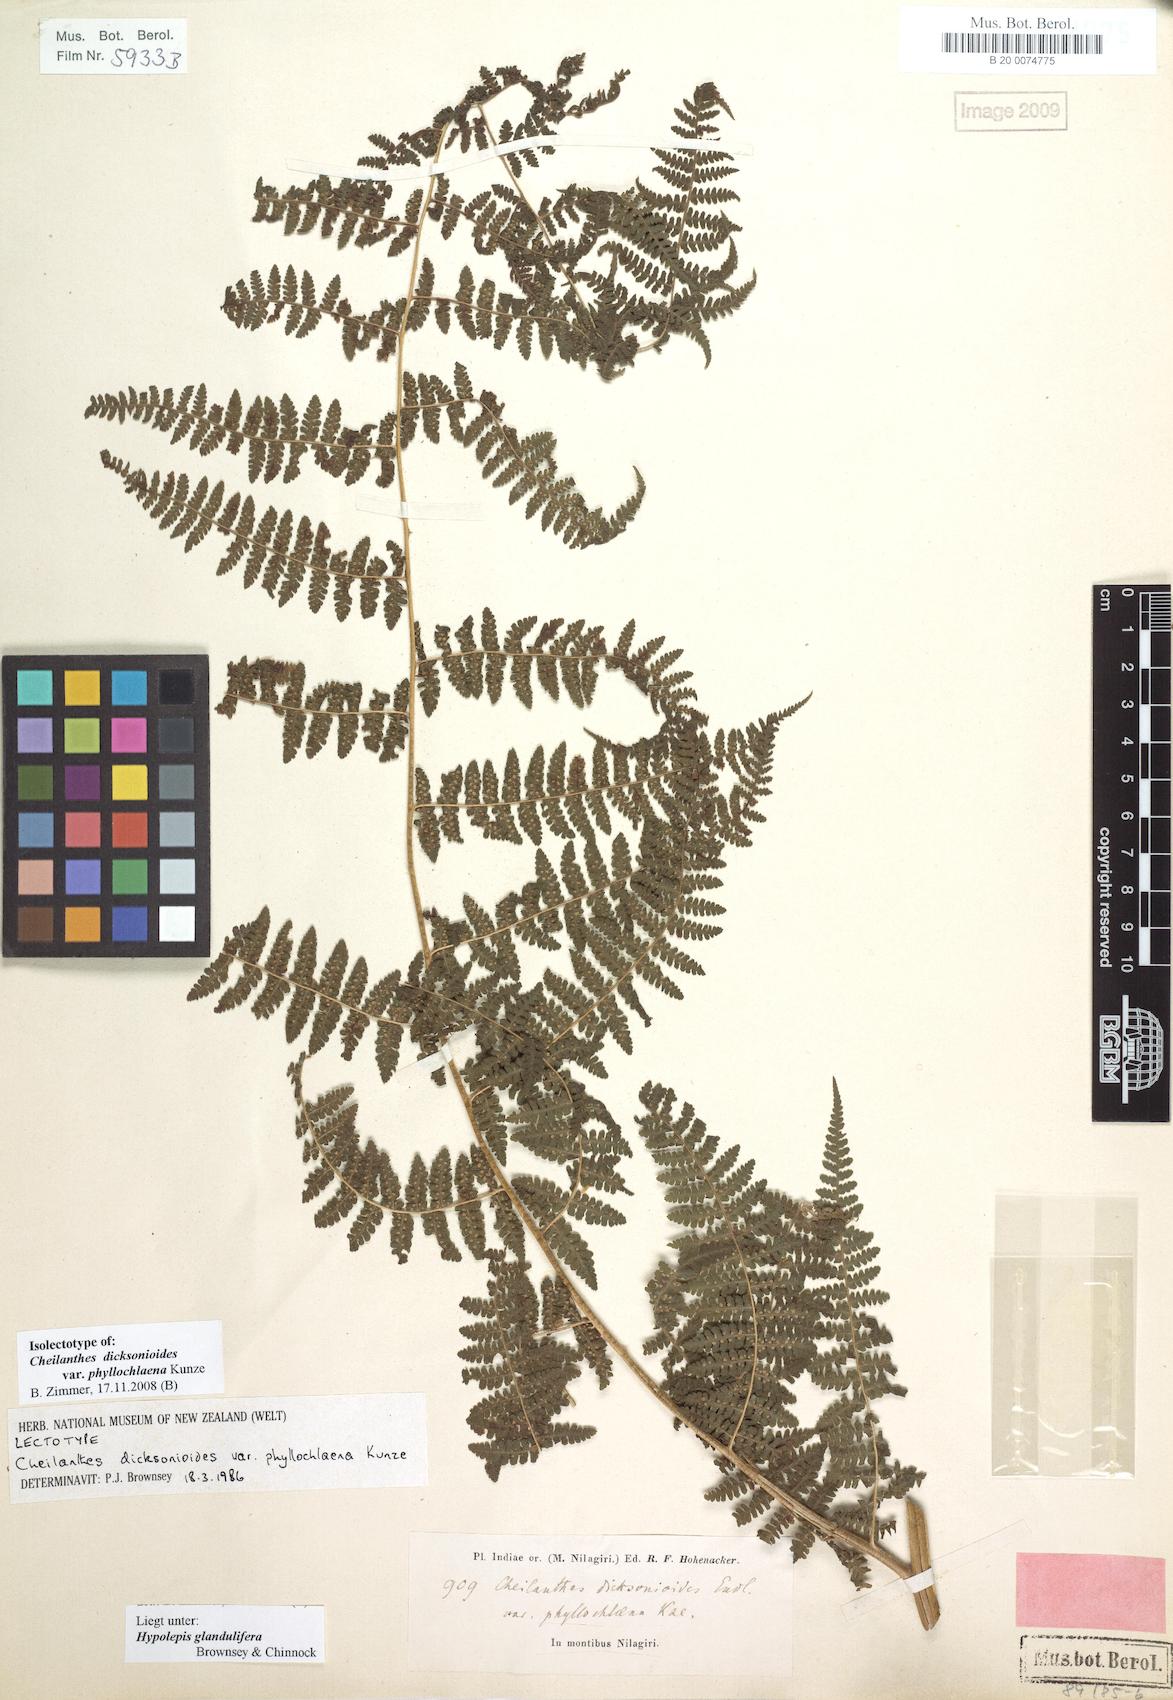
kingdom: Plantae
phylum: Tracheophyta
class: Polypodiopsida
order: Polypodiales
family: Dennstaedtiaceae
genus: Hypolepis
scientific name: Hypolepis resistens
